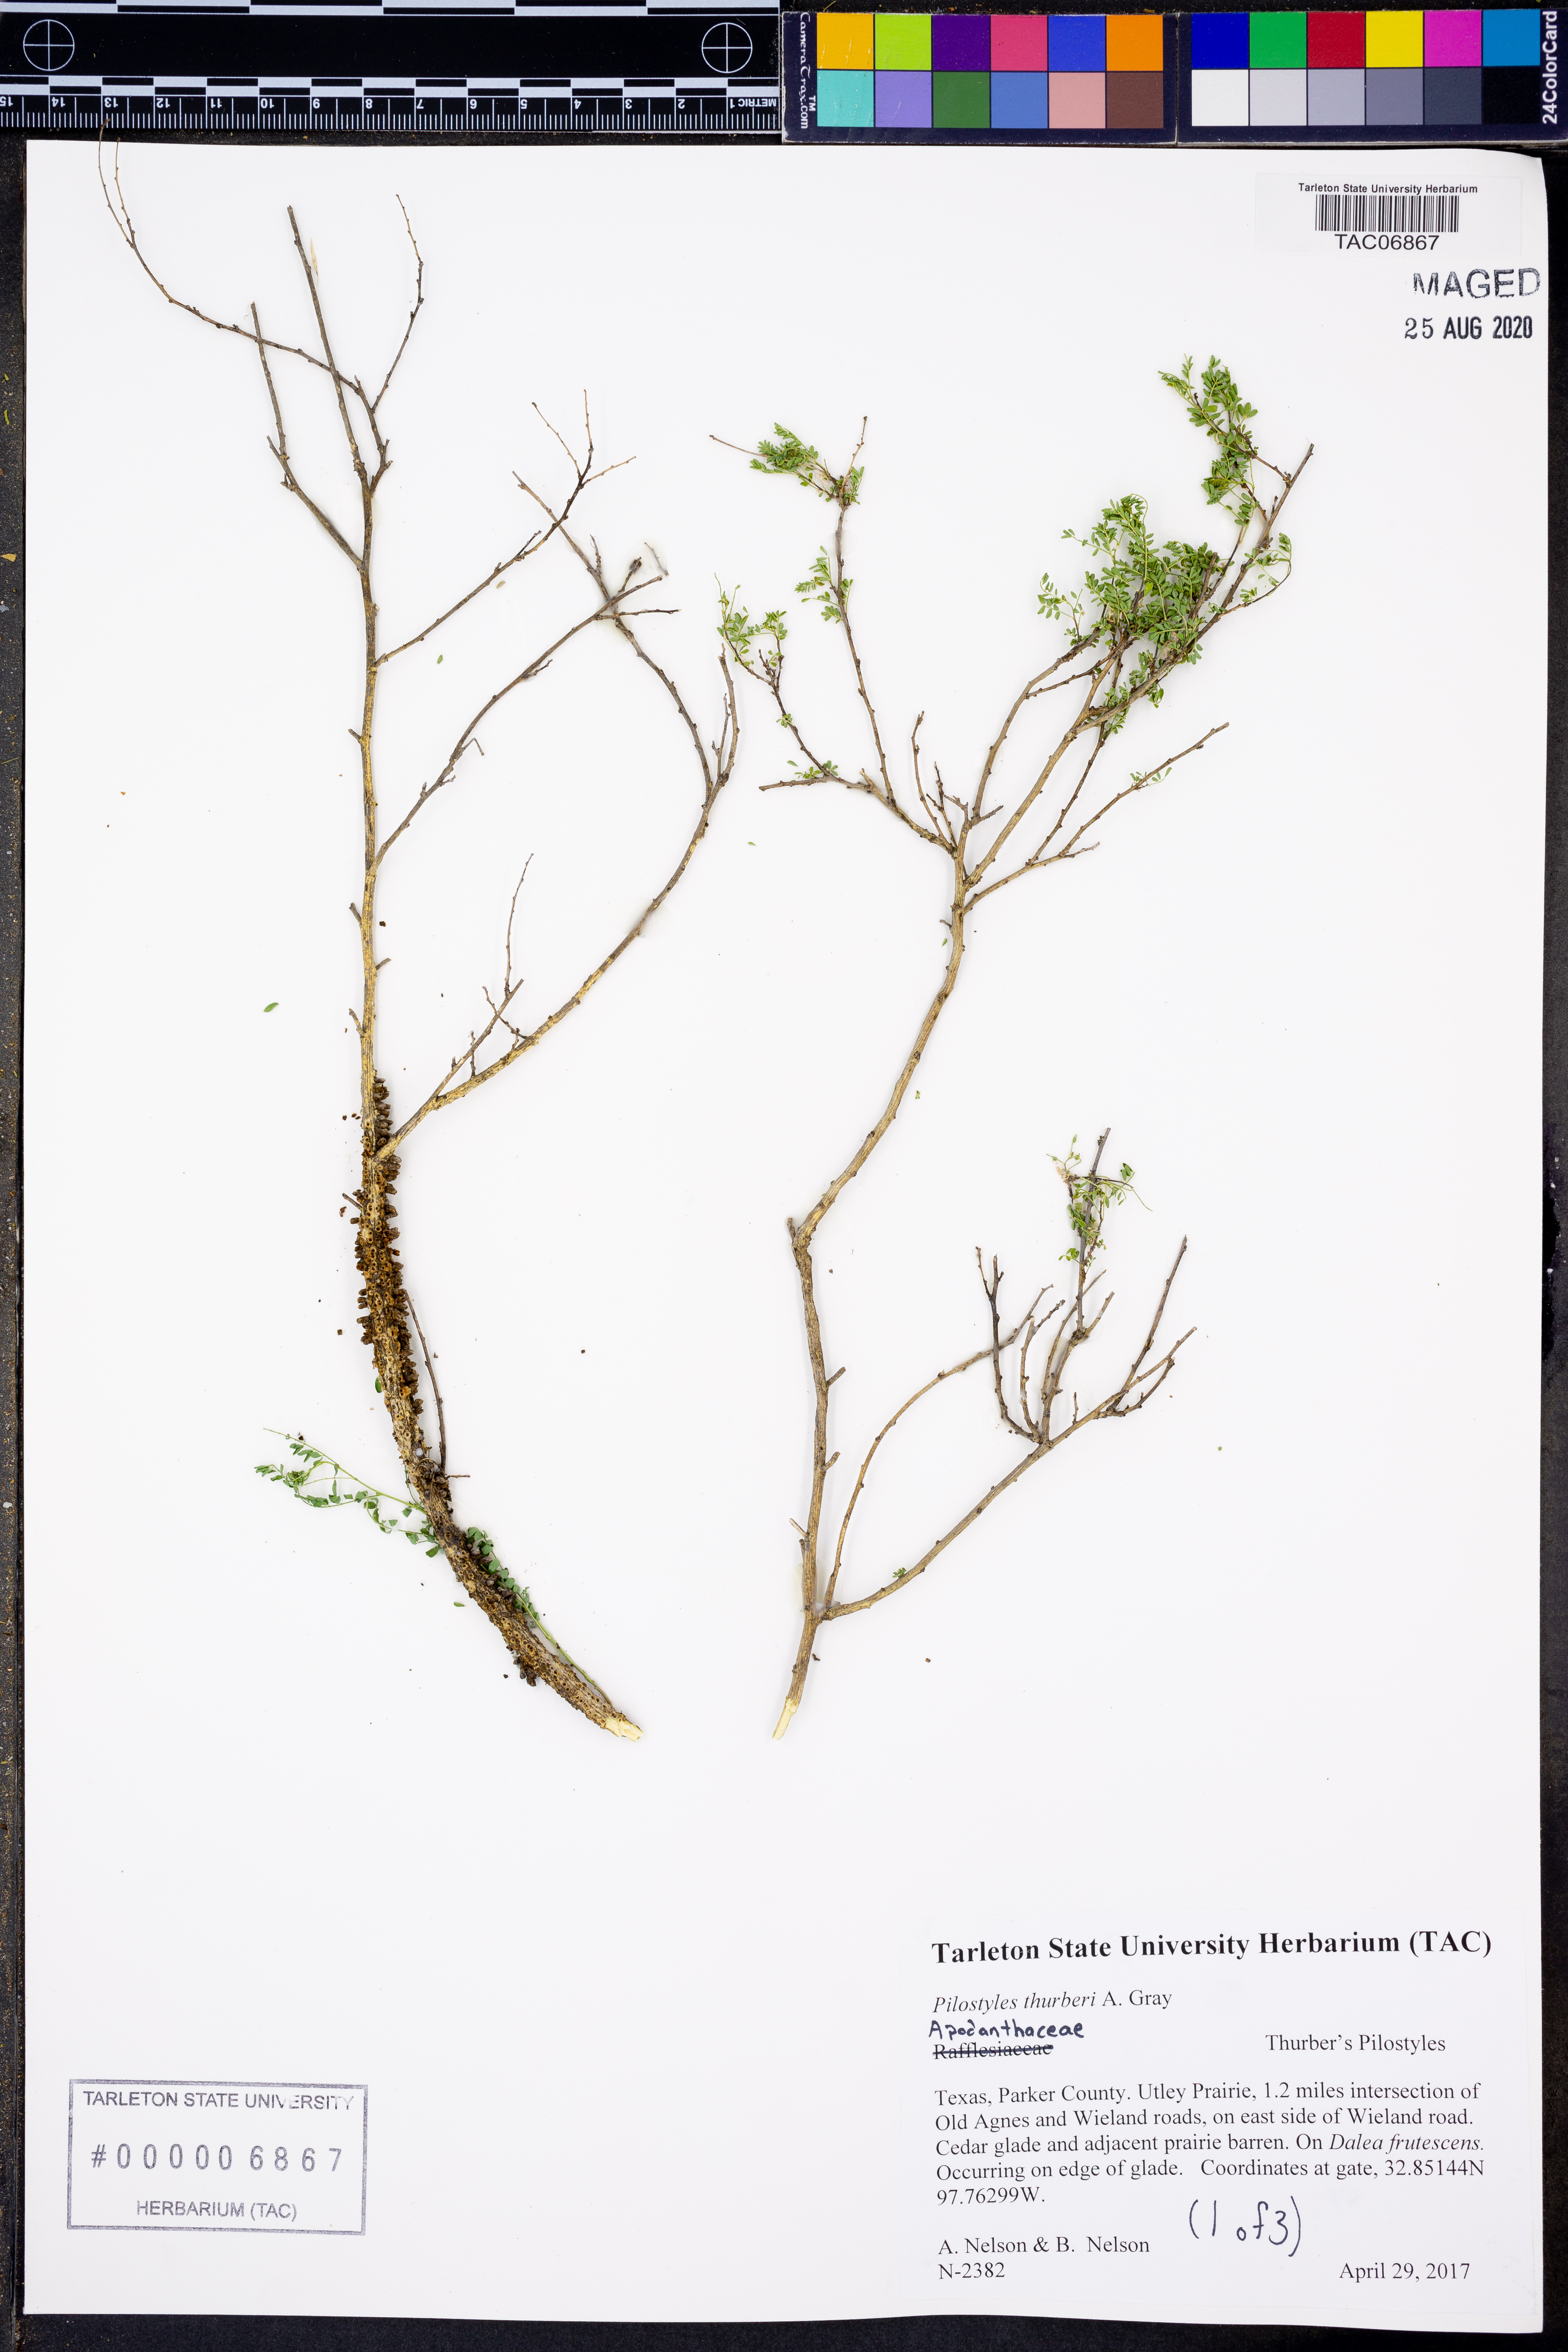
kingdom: Plantae
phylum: Tracheophyta
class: Magnoliopsida
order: Cucurbitales
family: Apodanthaceae
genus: Pilostyles
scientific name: Pilostyles thurberi
